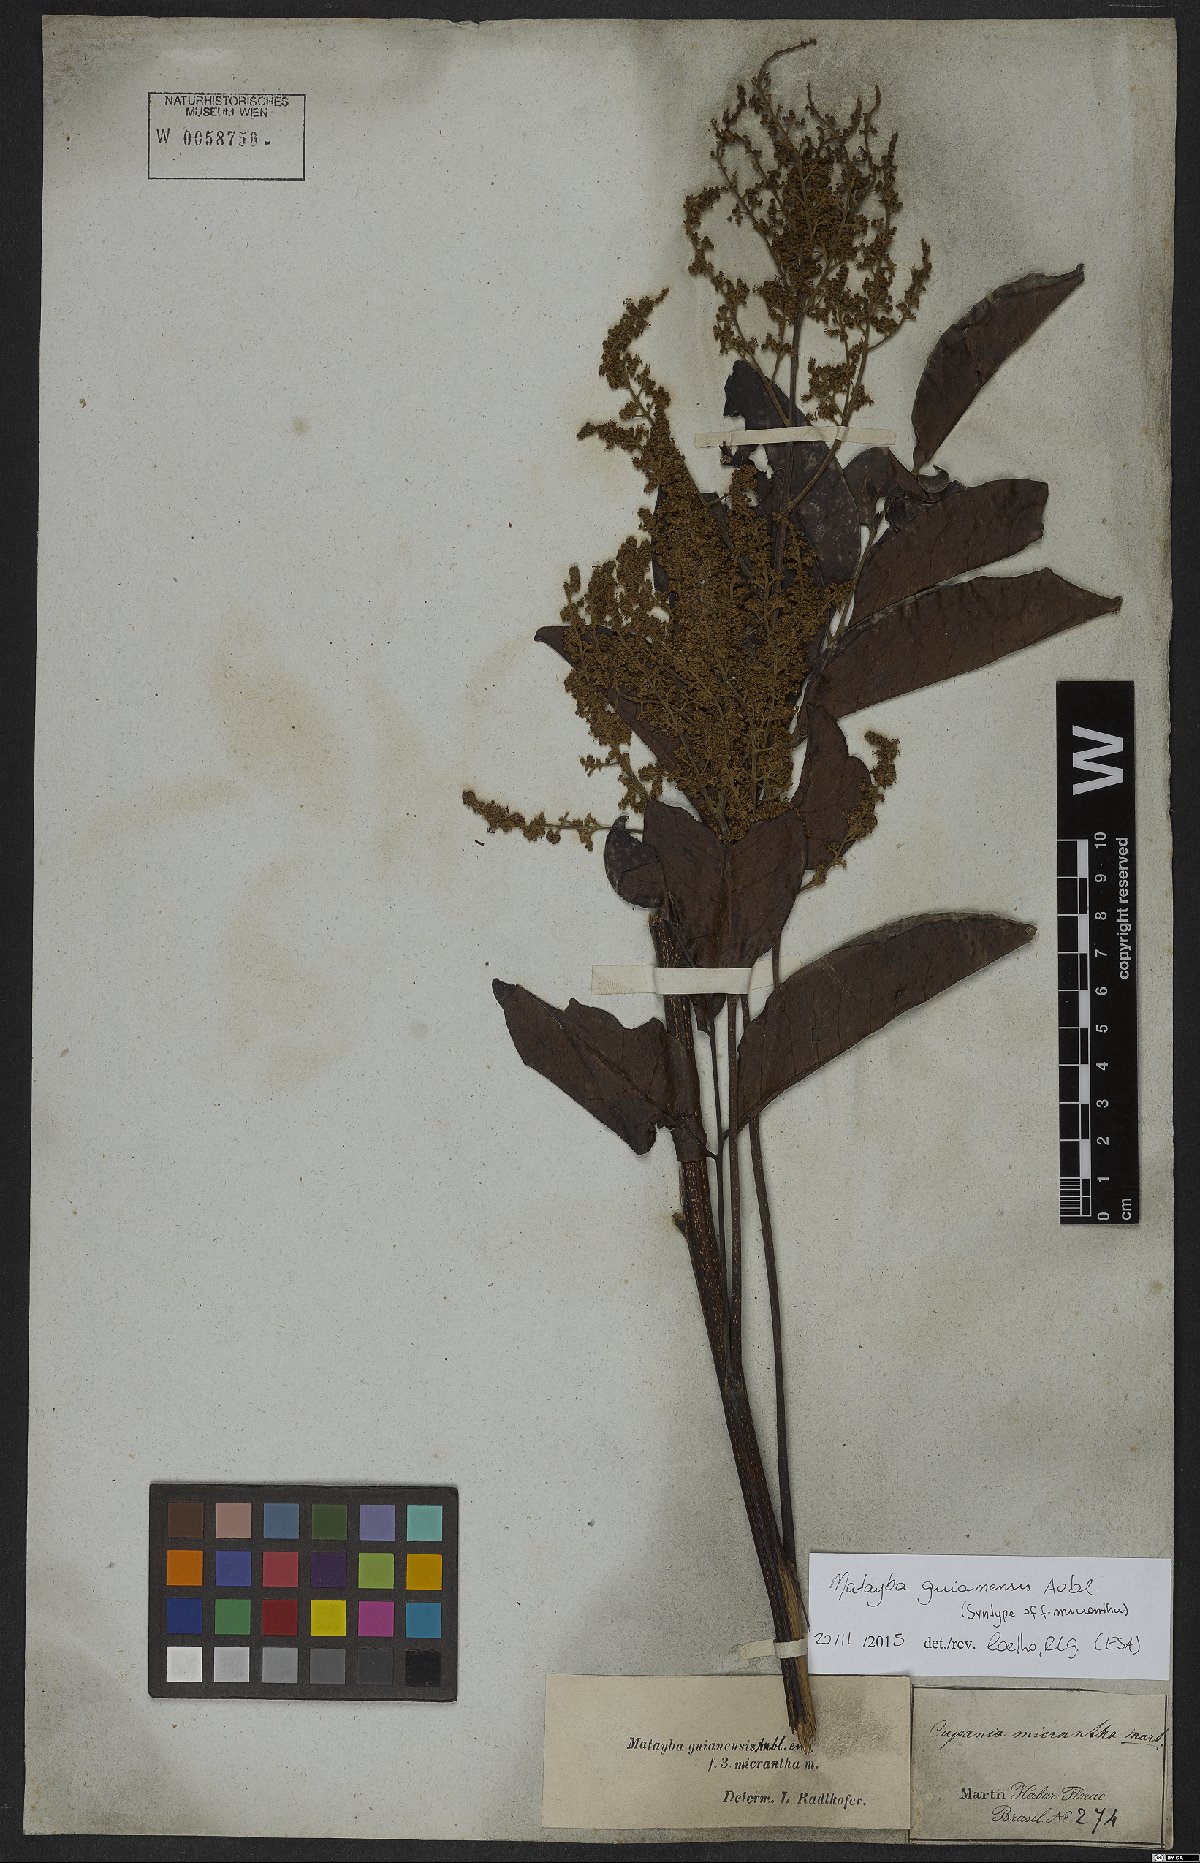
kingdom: Plantae
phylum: Tracheophyta
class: Magnoliopsida
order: Sapindales
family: Sapindaceae
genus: Matayba
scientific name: Matayba guianensis
